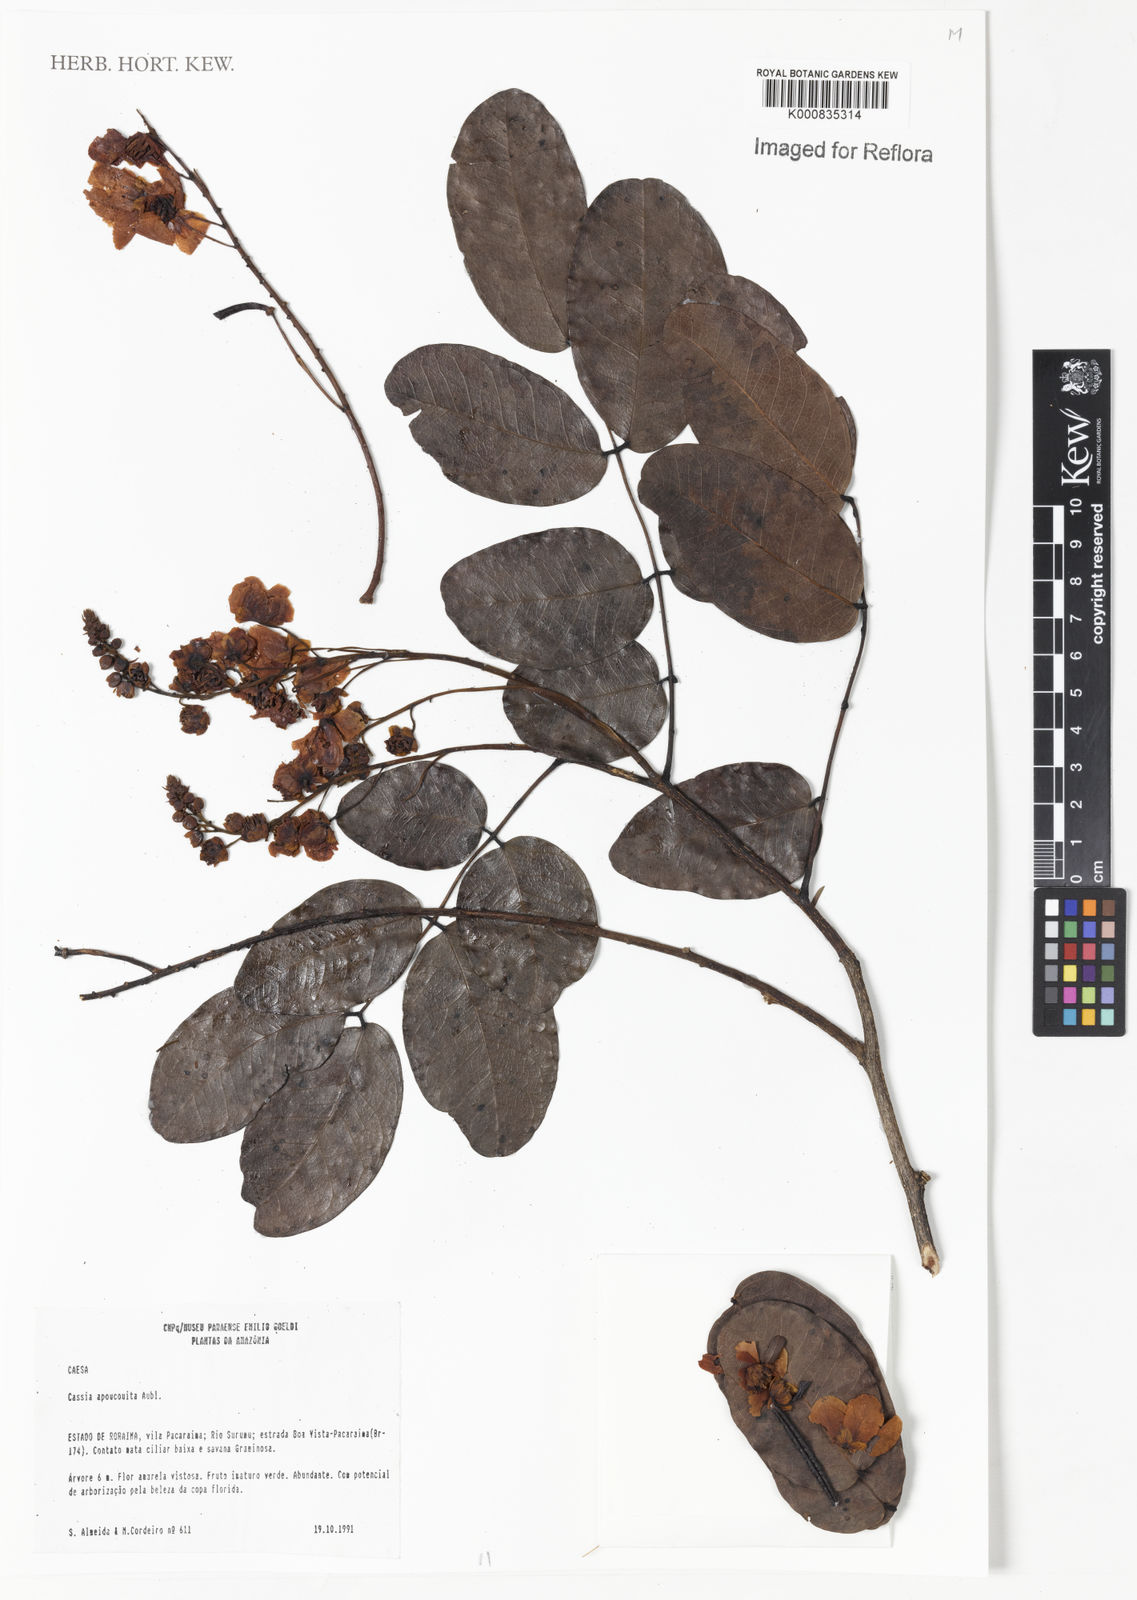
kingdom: Plantae
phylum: Tracheophyta
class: Magnoliopsida
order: Fabales
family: Fabaceae
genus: Chamaecrista
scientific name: Chamaecrista apoucouita
